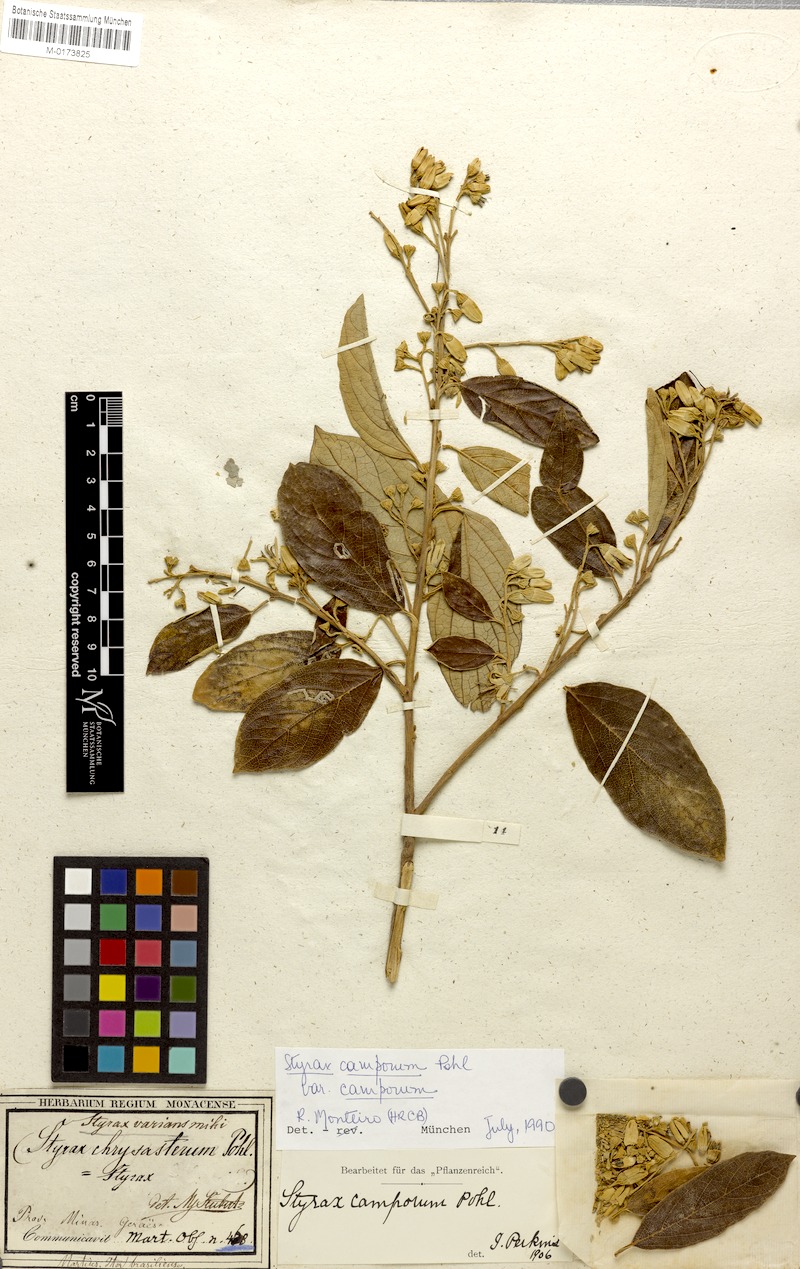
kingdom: Plantae
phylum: Tracheophyta
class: Magnoliopsida
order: Ericales
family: Styracaceae
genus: Styrax
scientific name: Styrax camporum
